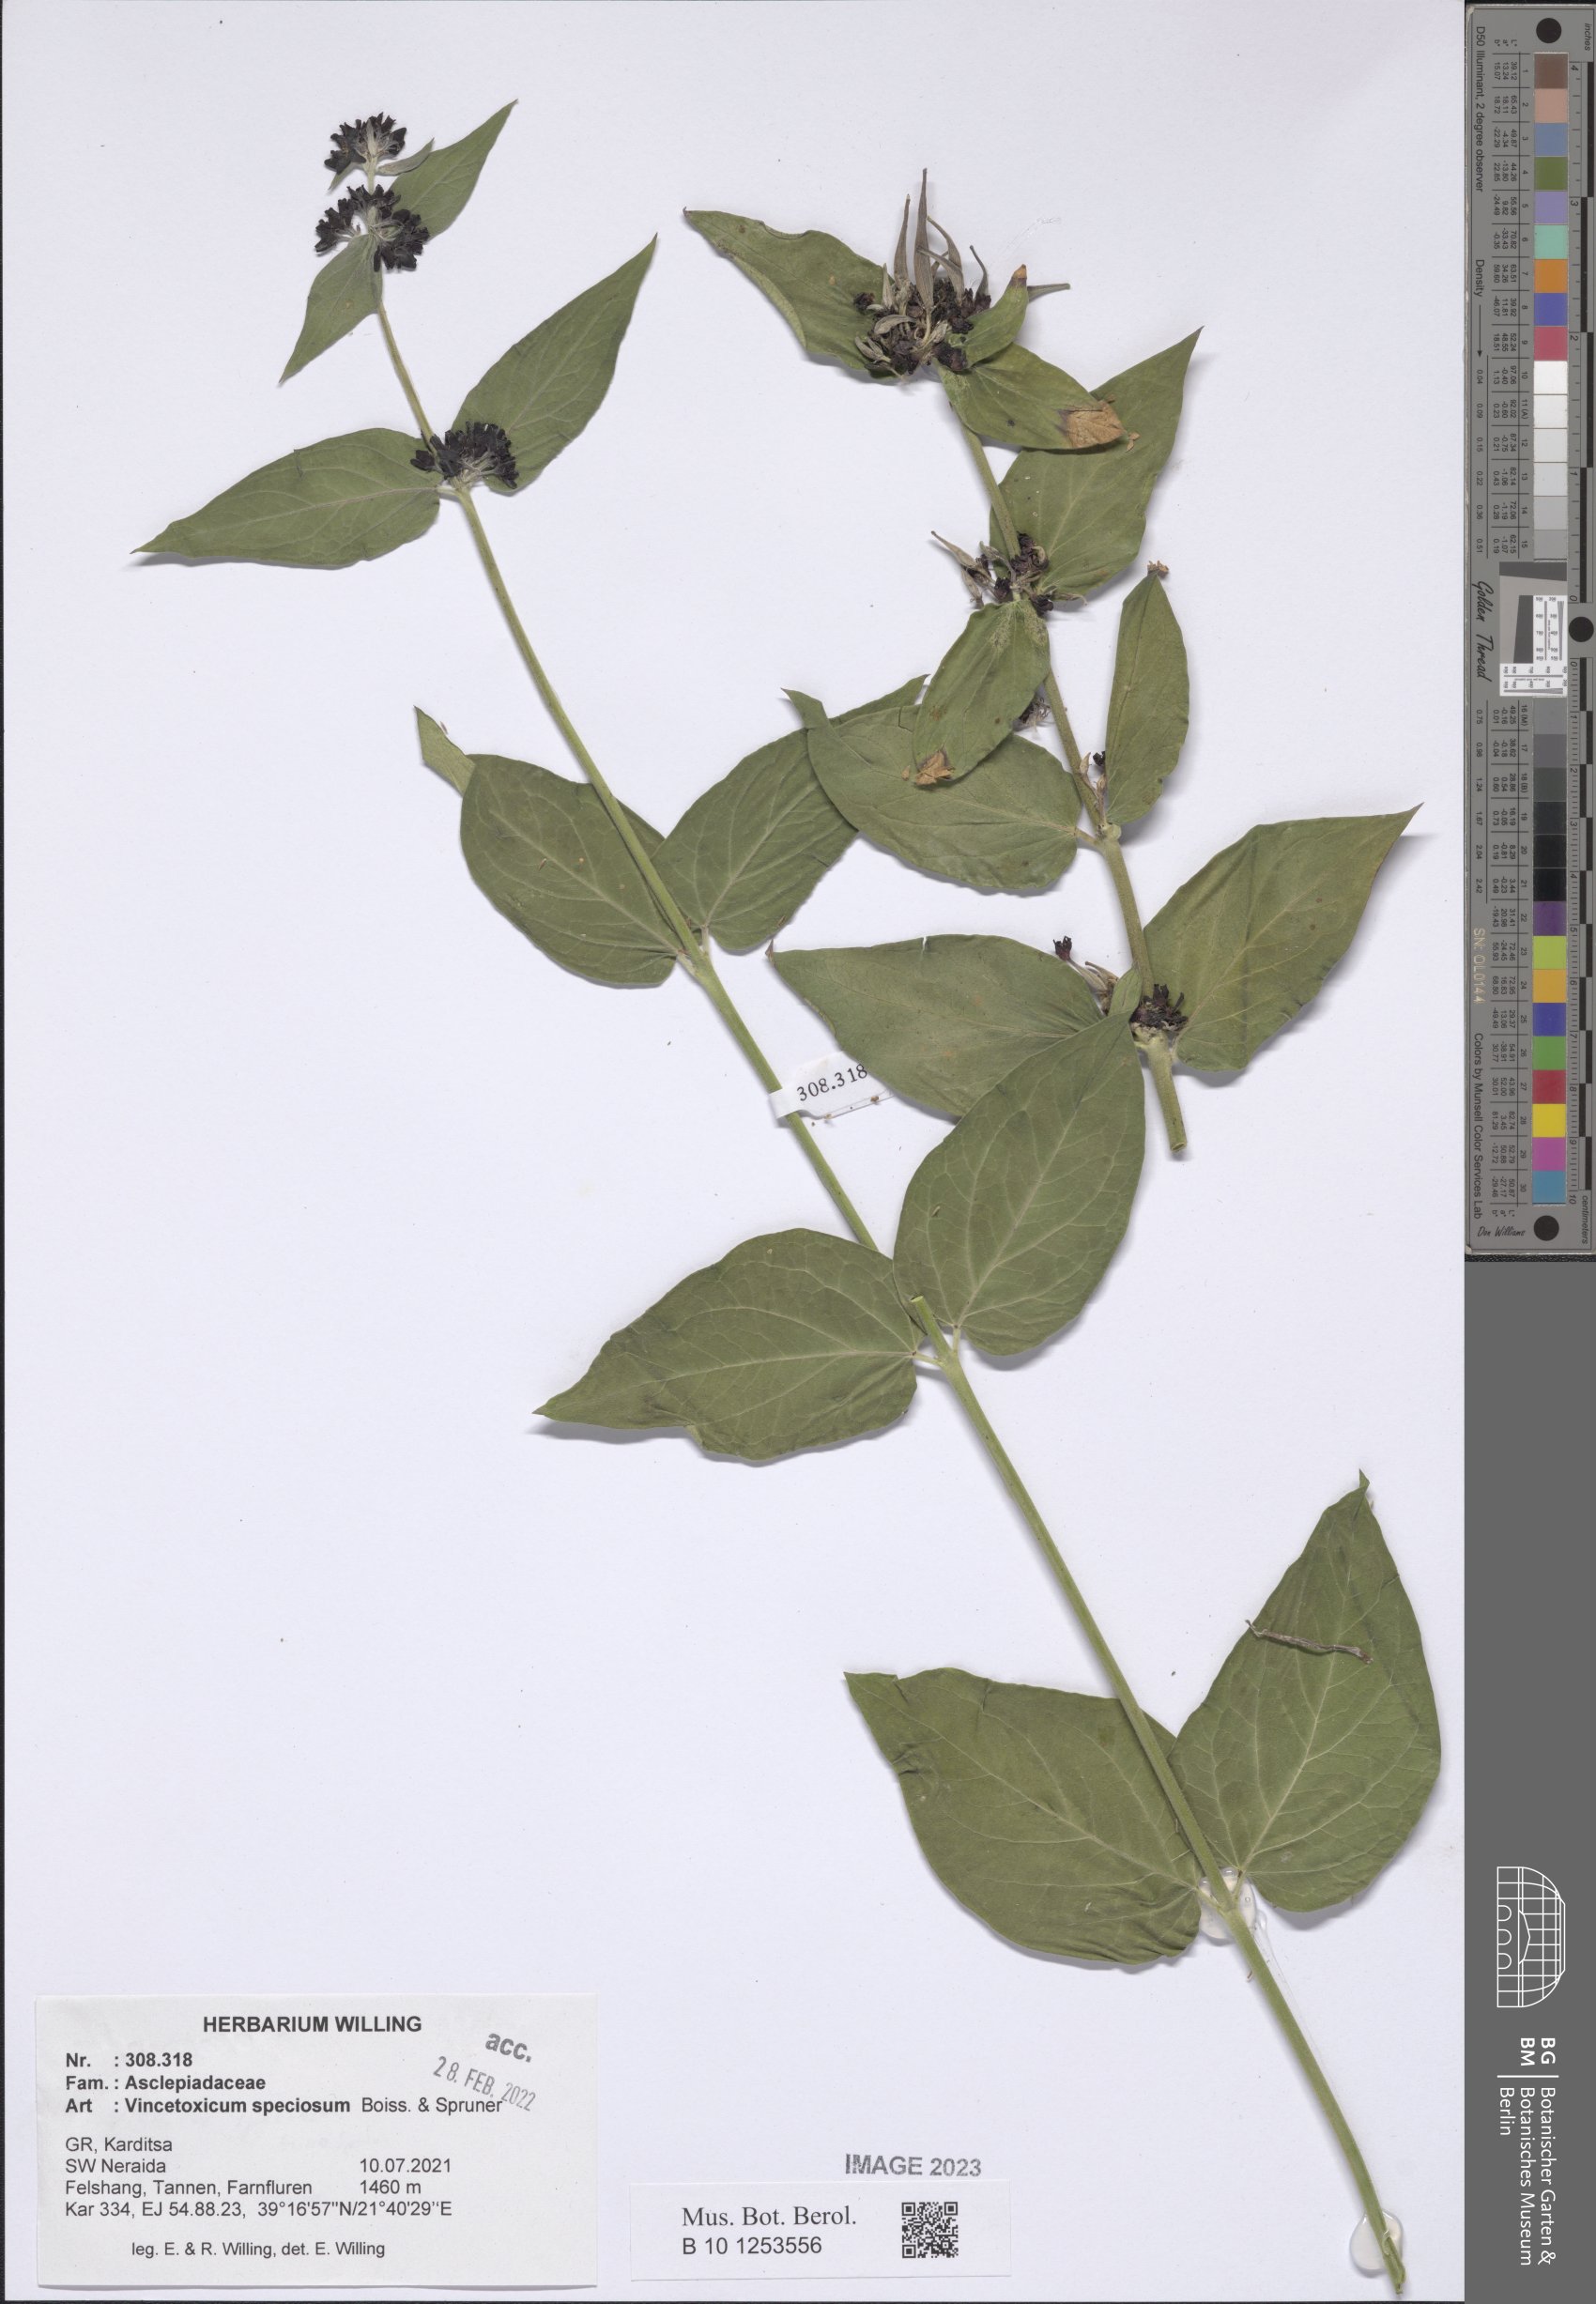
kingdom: Plantae
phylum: Tracheophyta
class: Magnoliopsida
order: Gentianales
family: Apocynaceae
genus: Vincetoxicum
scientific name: Vincetoxicum speciosum
